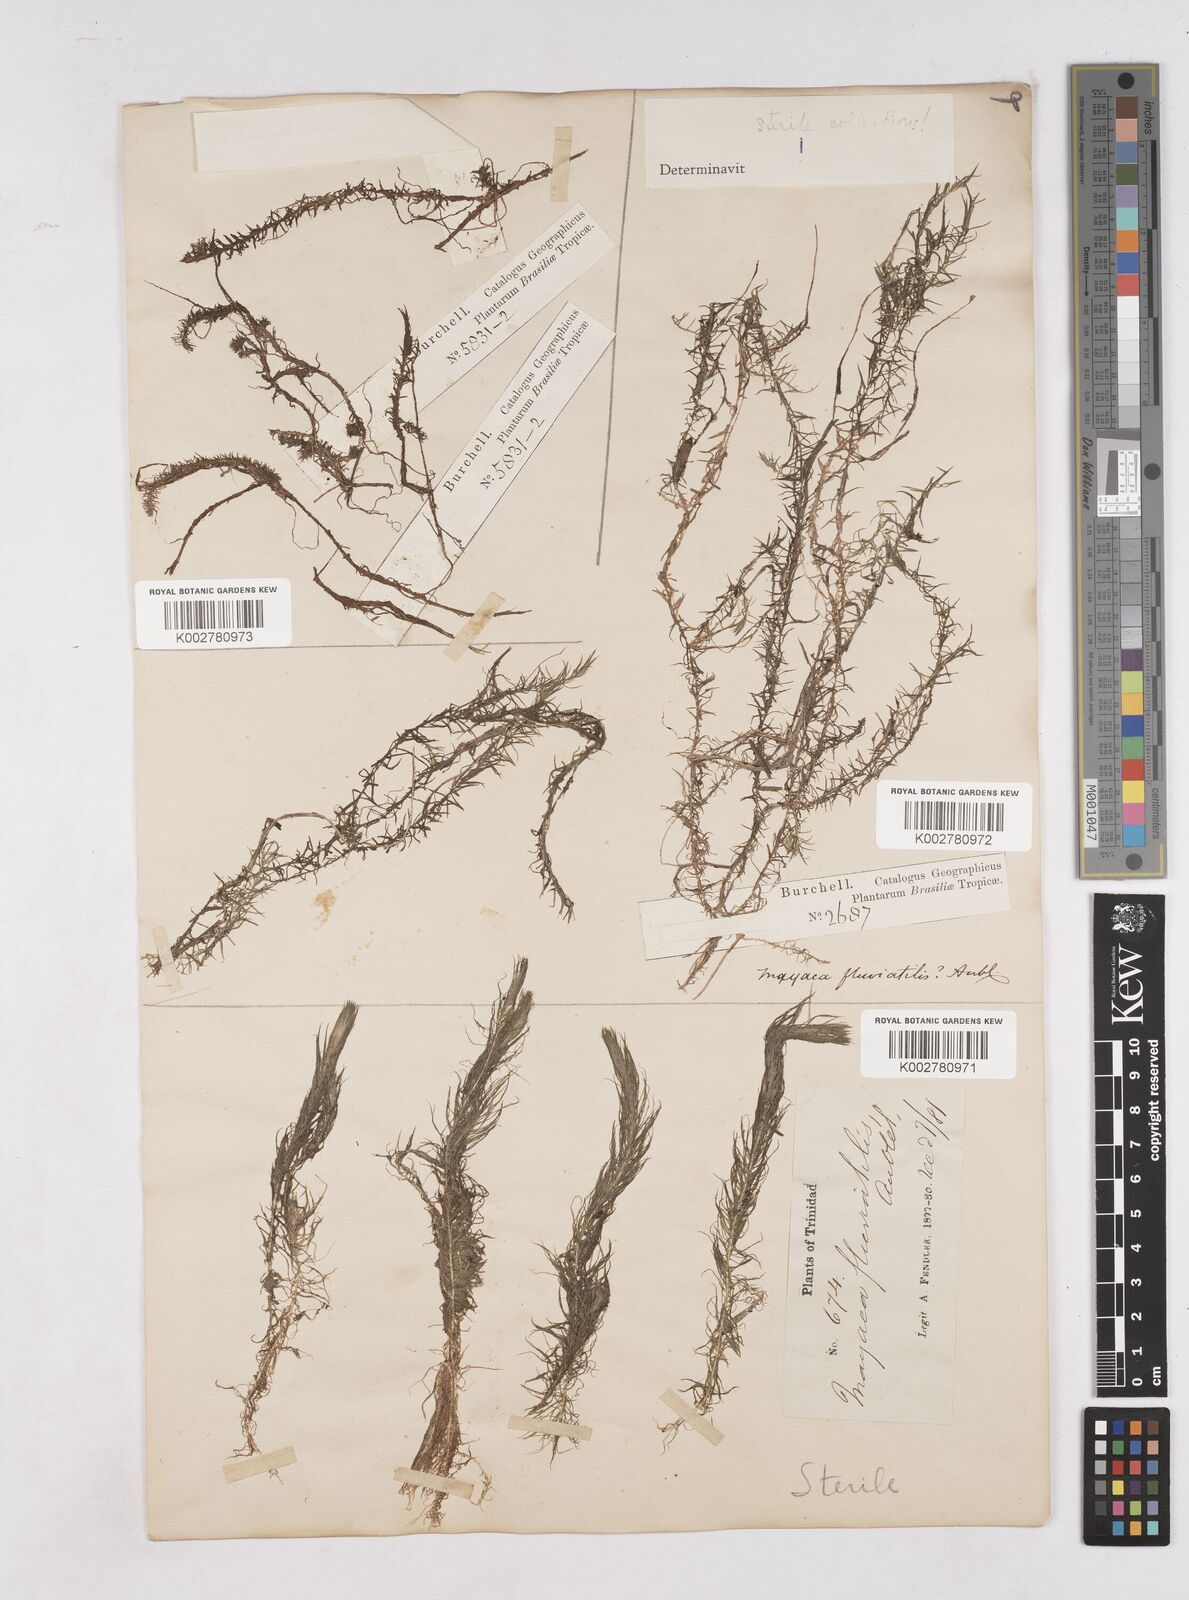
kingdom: Plantae
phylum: Tracheophyta
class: Liliopsida
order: Poales
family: Mayacaceae
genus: Mayaca
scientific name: Mayaca
